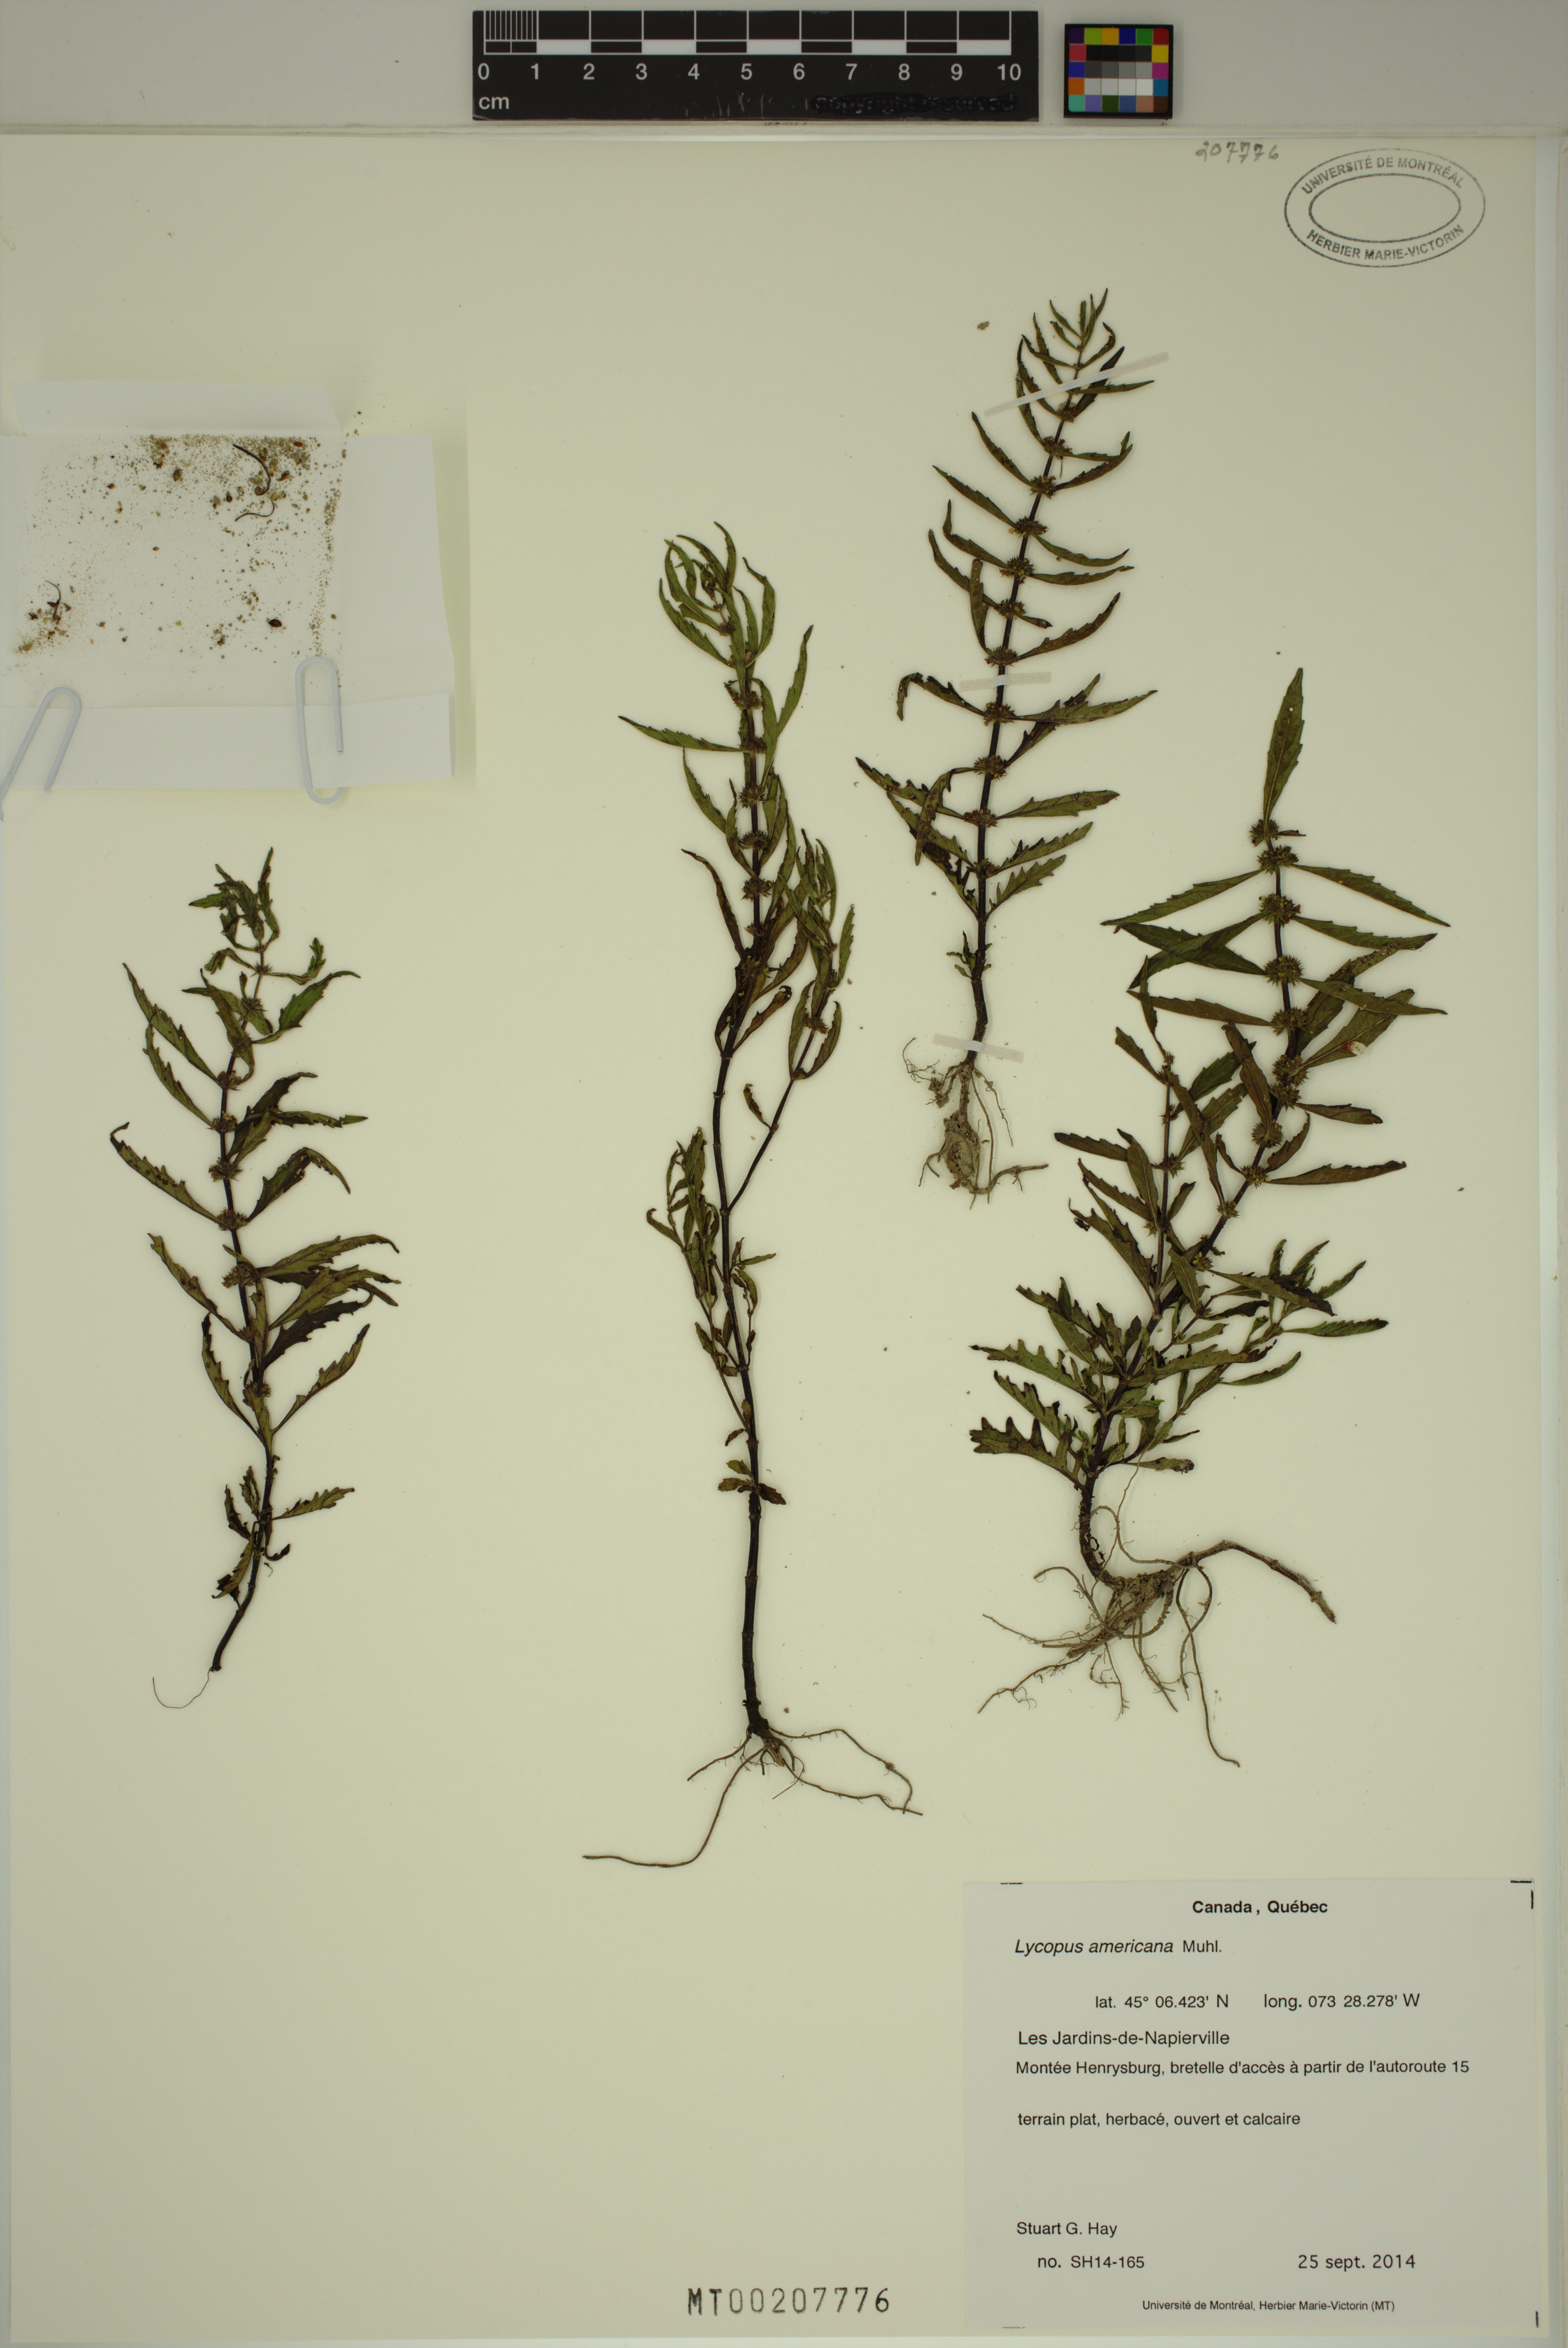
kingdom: Plantae
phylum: Tracheophyta
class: Magnoliopsida
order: Lamiales
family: Lamiaceae
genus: Lycopus
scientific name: Lycopus americanus
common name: American bugleweed
